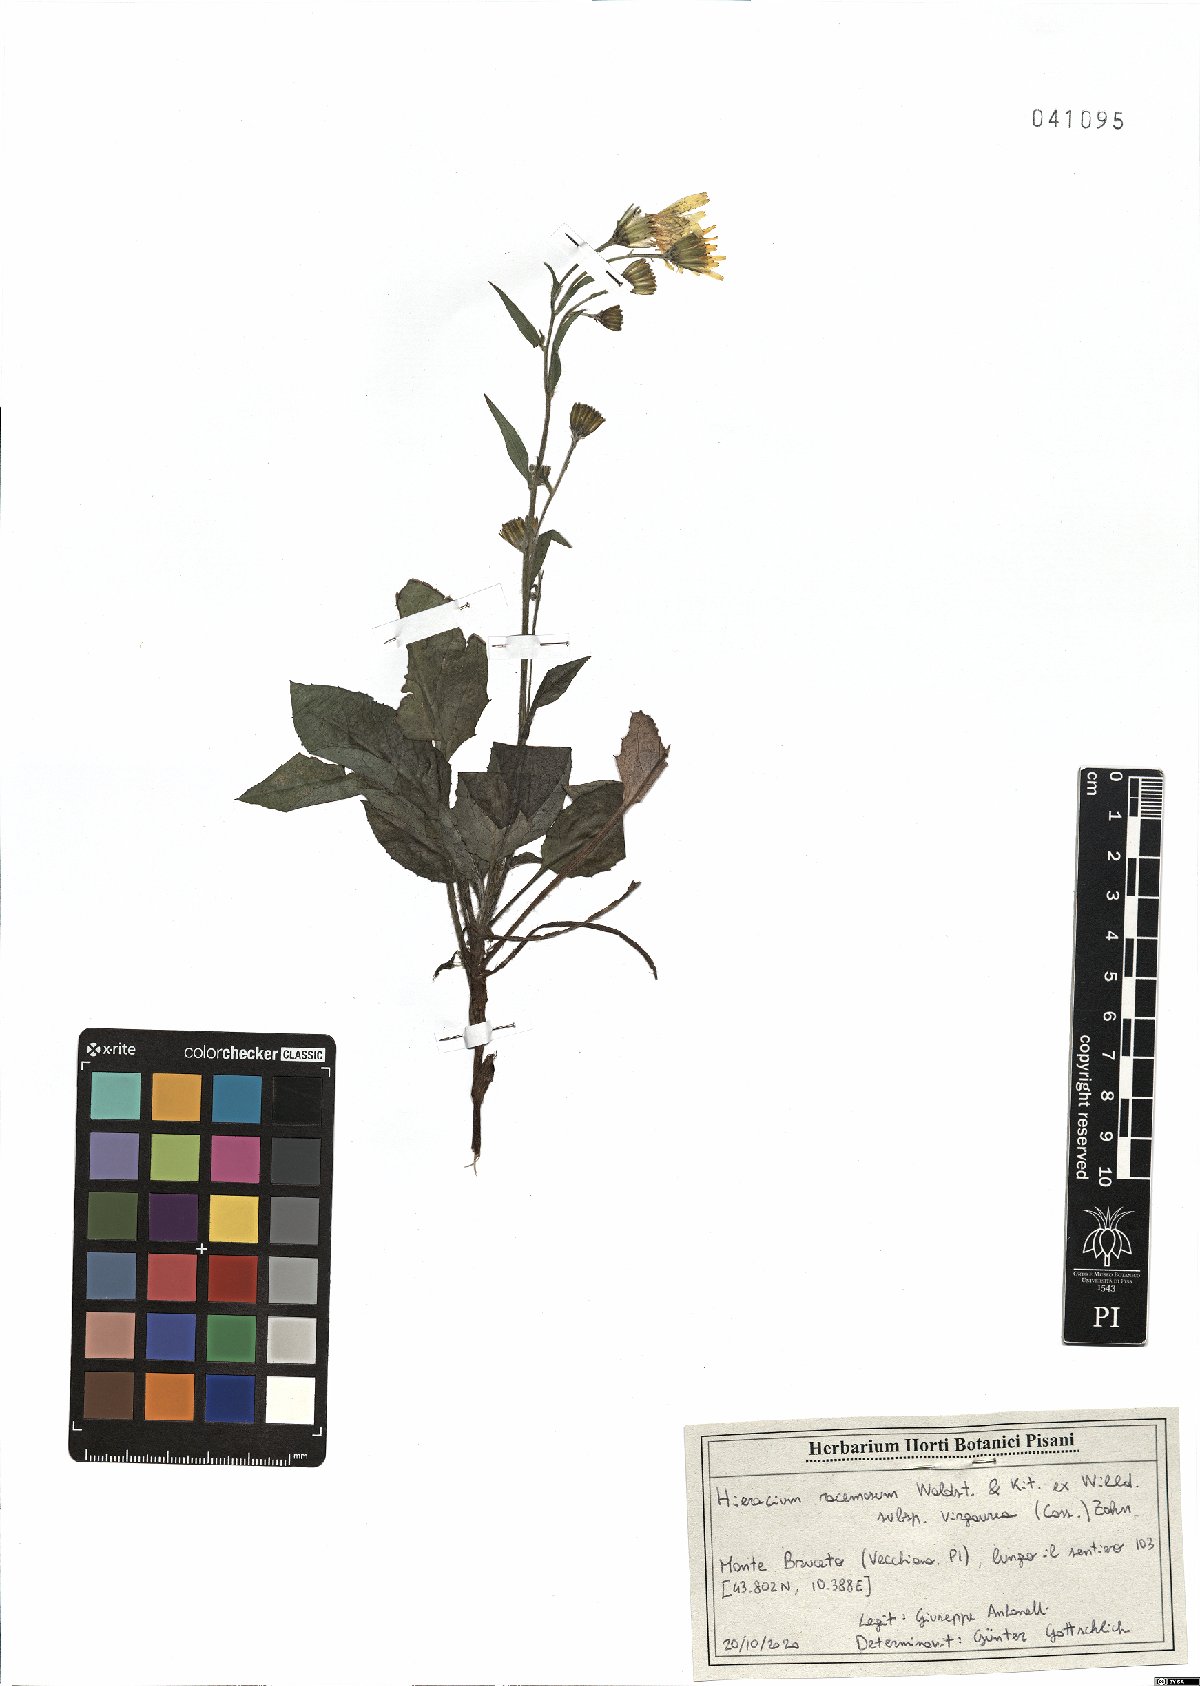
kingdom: Plantae
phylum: Tracheophyta
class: Magnoliopsida
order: Asterales
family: Asteraceae
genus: Hieracium
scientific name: Hieracium racemosum
